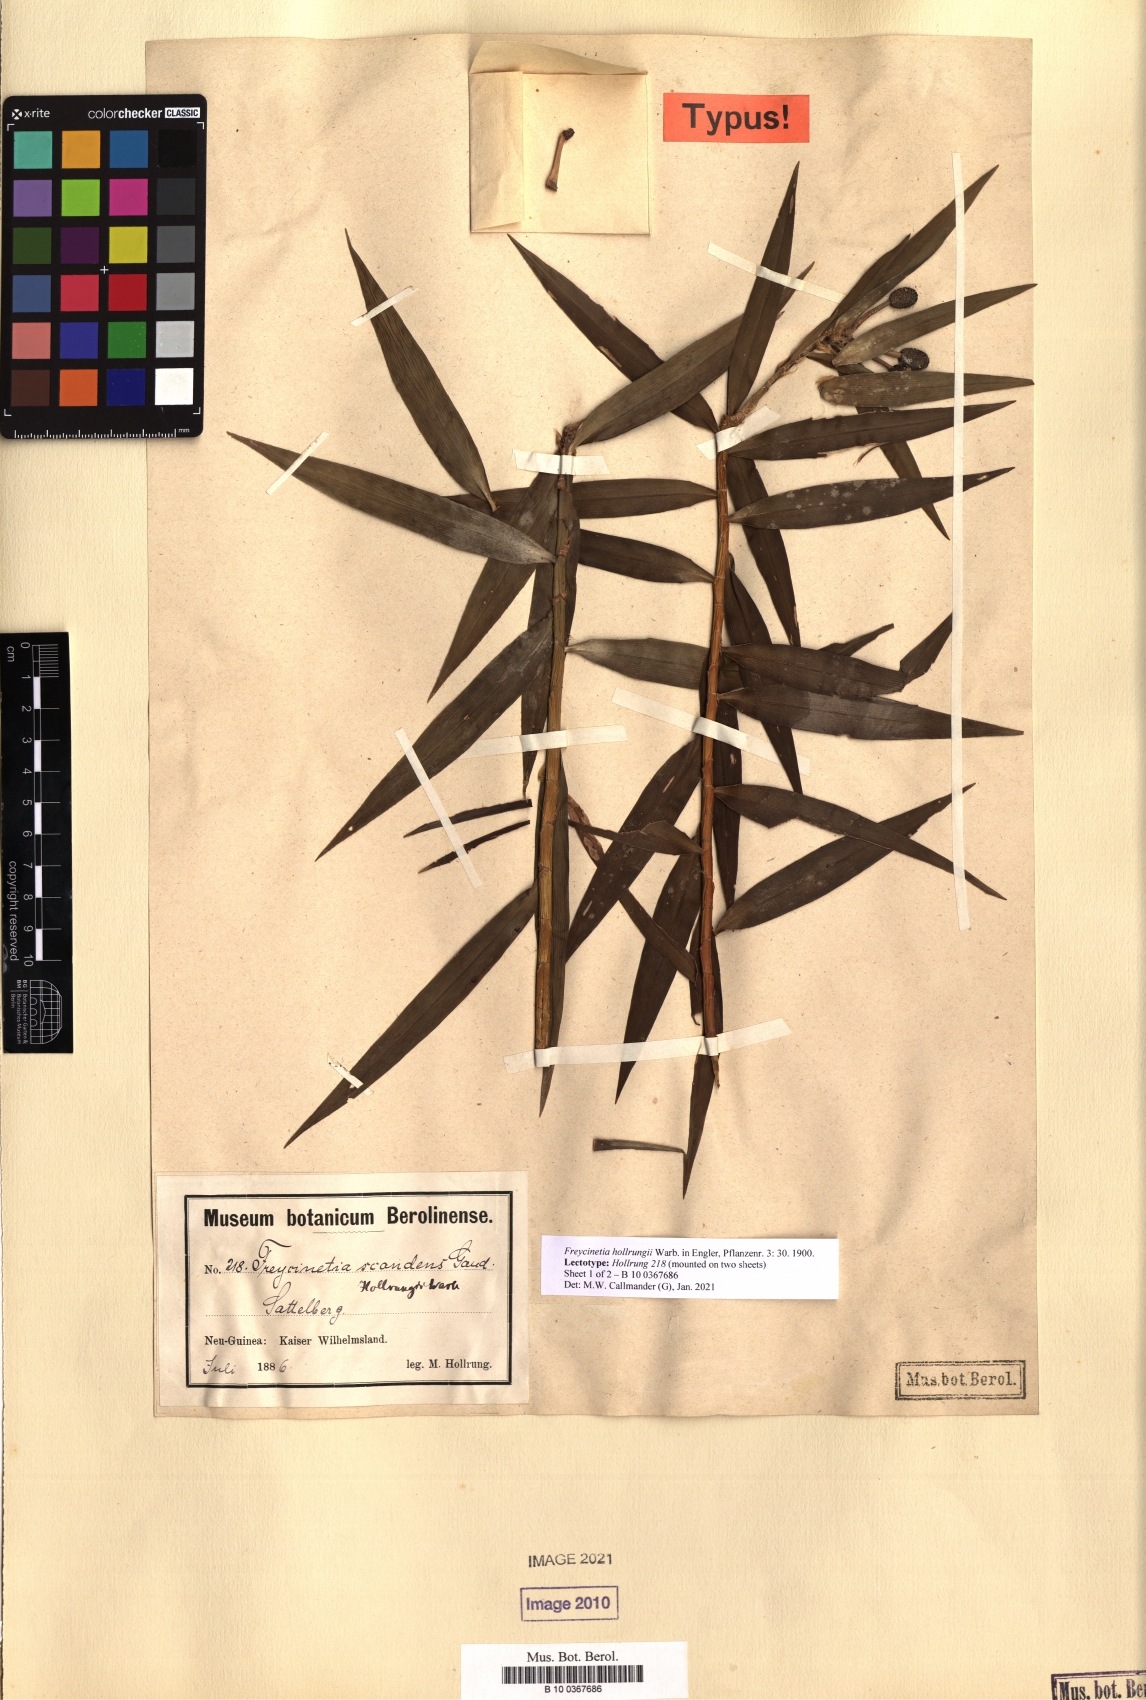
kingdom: Plantae
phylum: Tracheophyta
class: Liliopsida
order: Pandanales
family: Pandanaceae
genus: Freycinetia
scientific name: Freycinetia scandens
